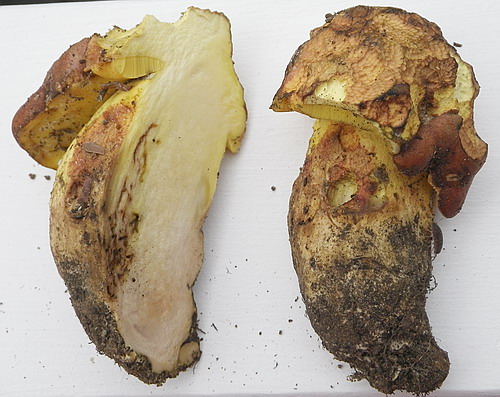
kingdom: Fungi
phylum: Basidiomycota
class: Agaricomycetes
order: Boletales
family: Boletaceae
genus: Caloboletus
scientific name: Caloboletus radicans
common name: rod-rørhat
